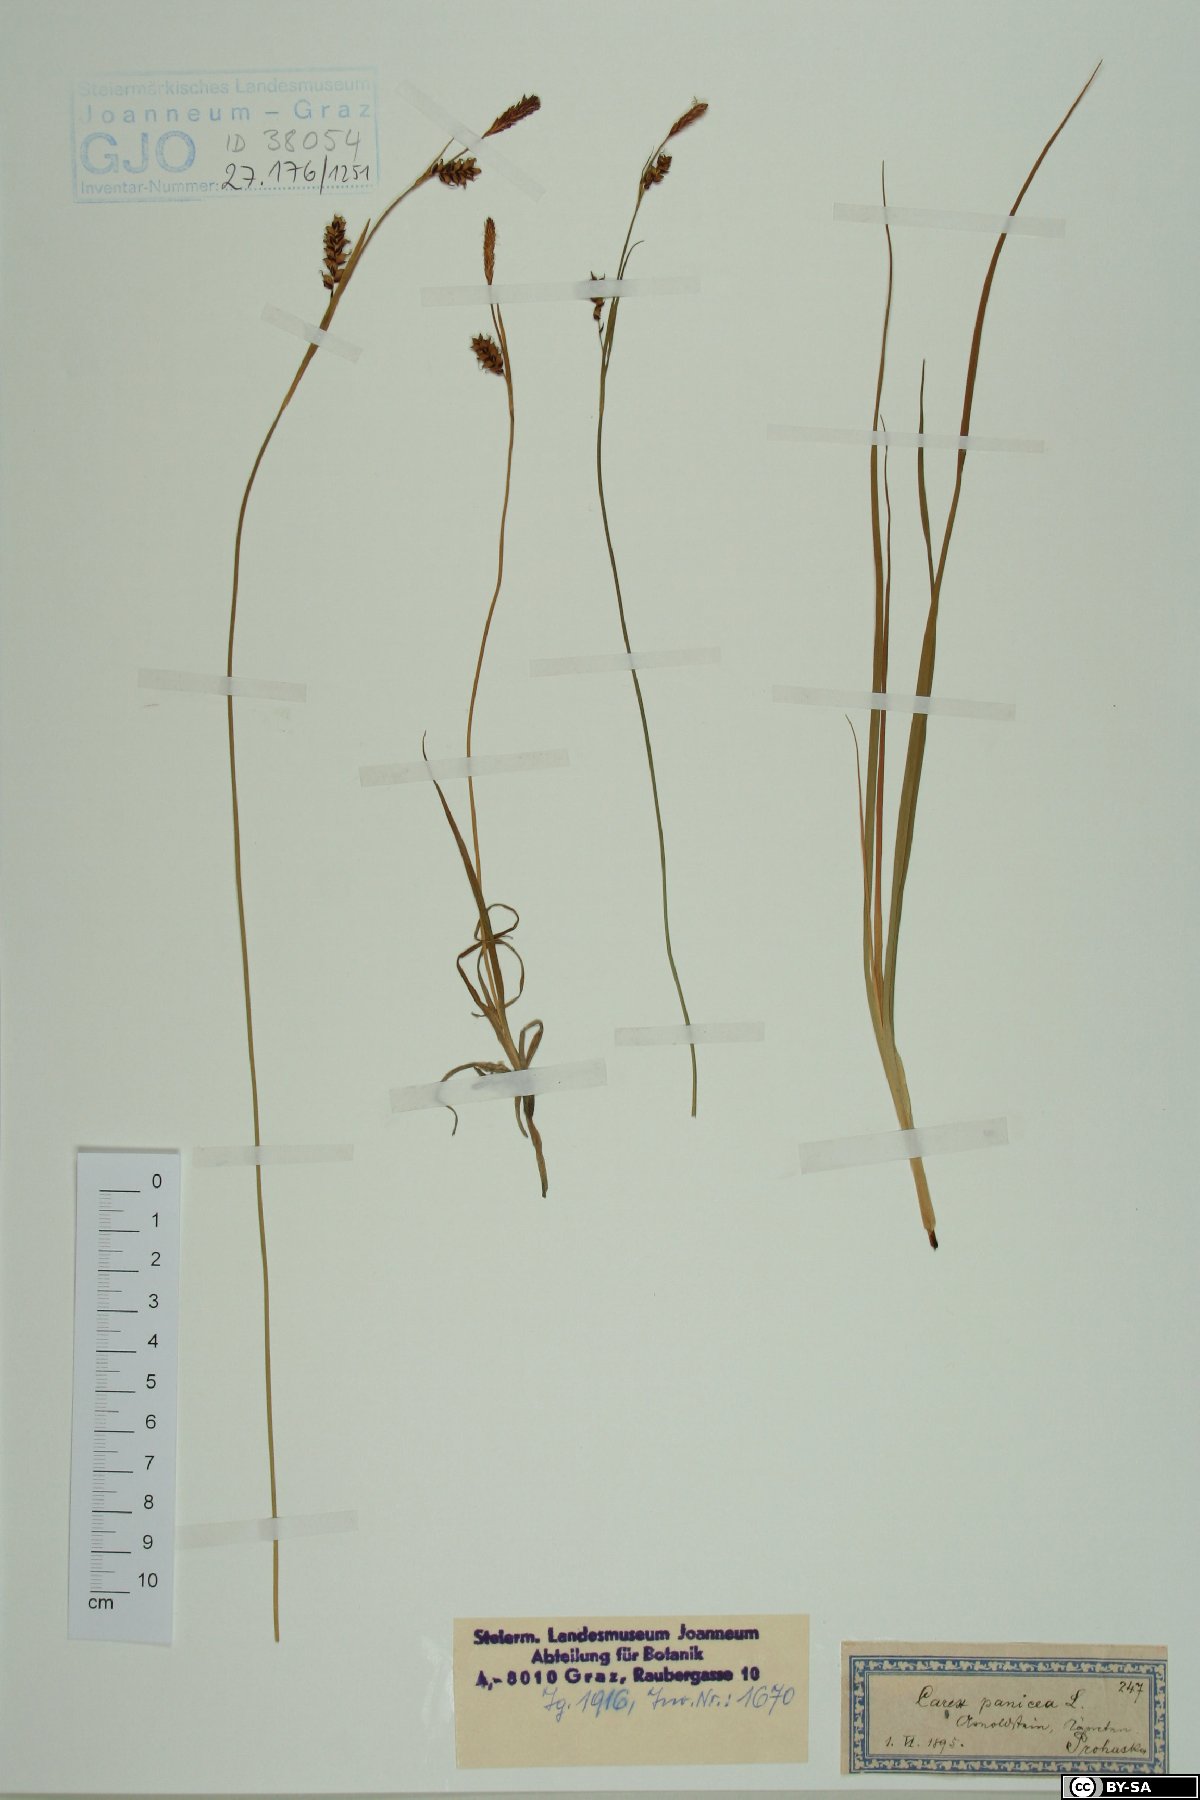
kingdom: Plantae
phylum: Tracheophyta
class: Liliopsida
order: Poales
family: Cyperaceae
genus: Carex
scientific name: Carex panicea
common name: Carnation sedge
